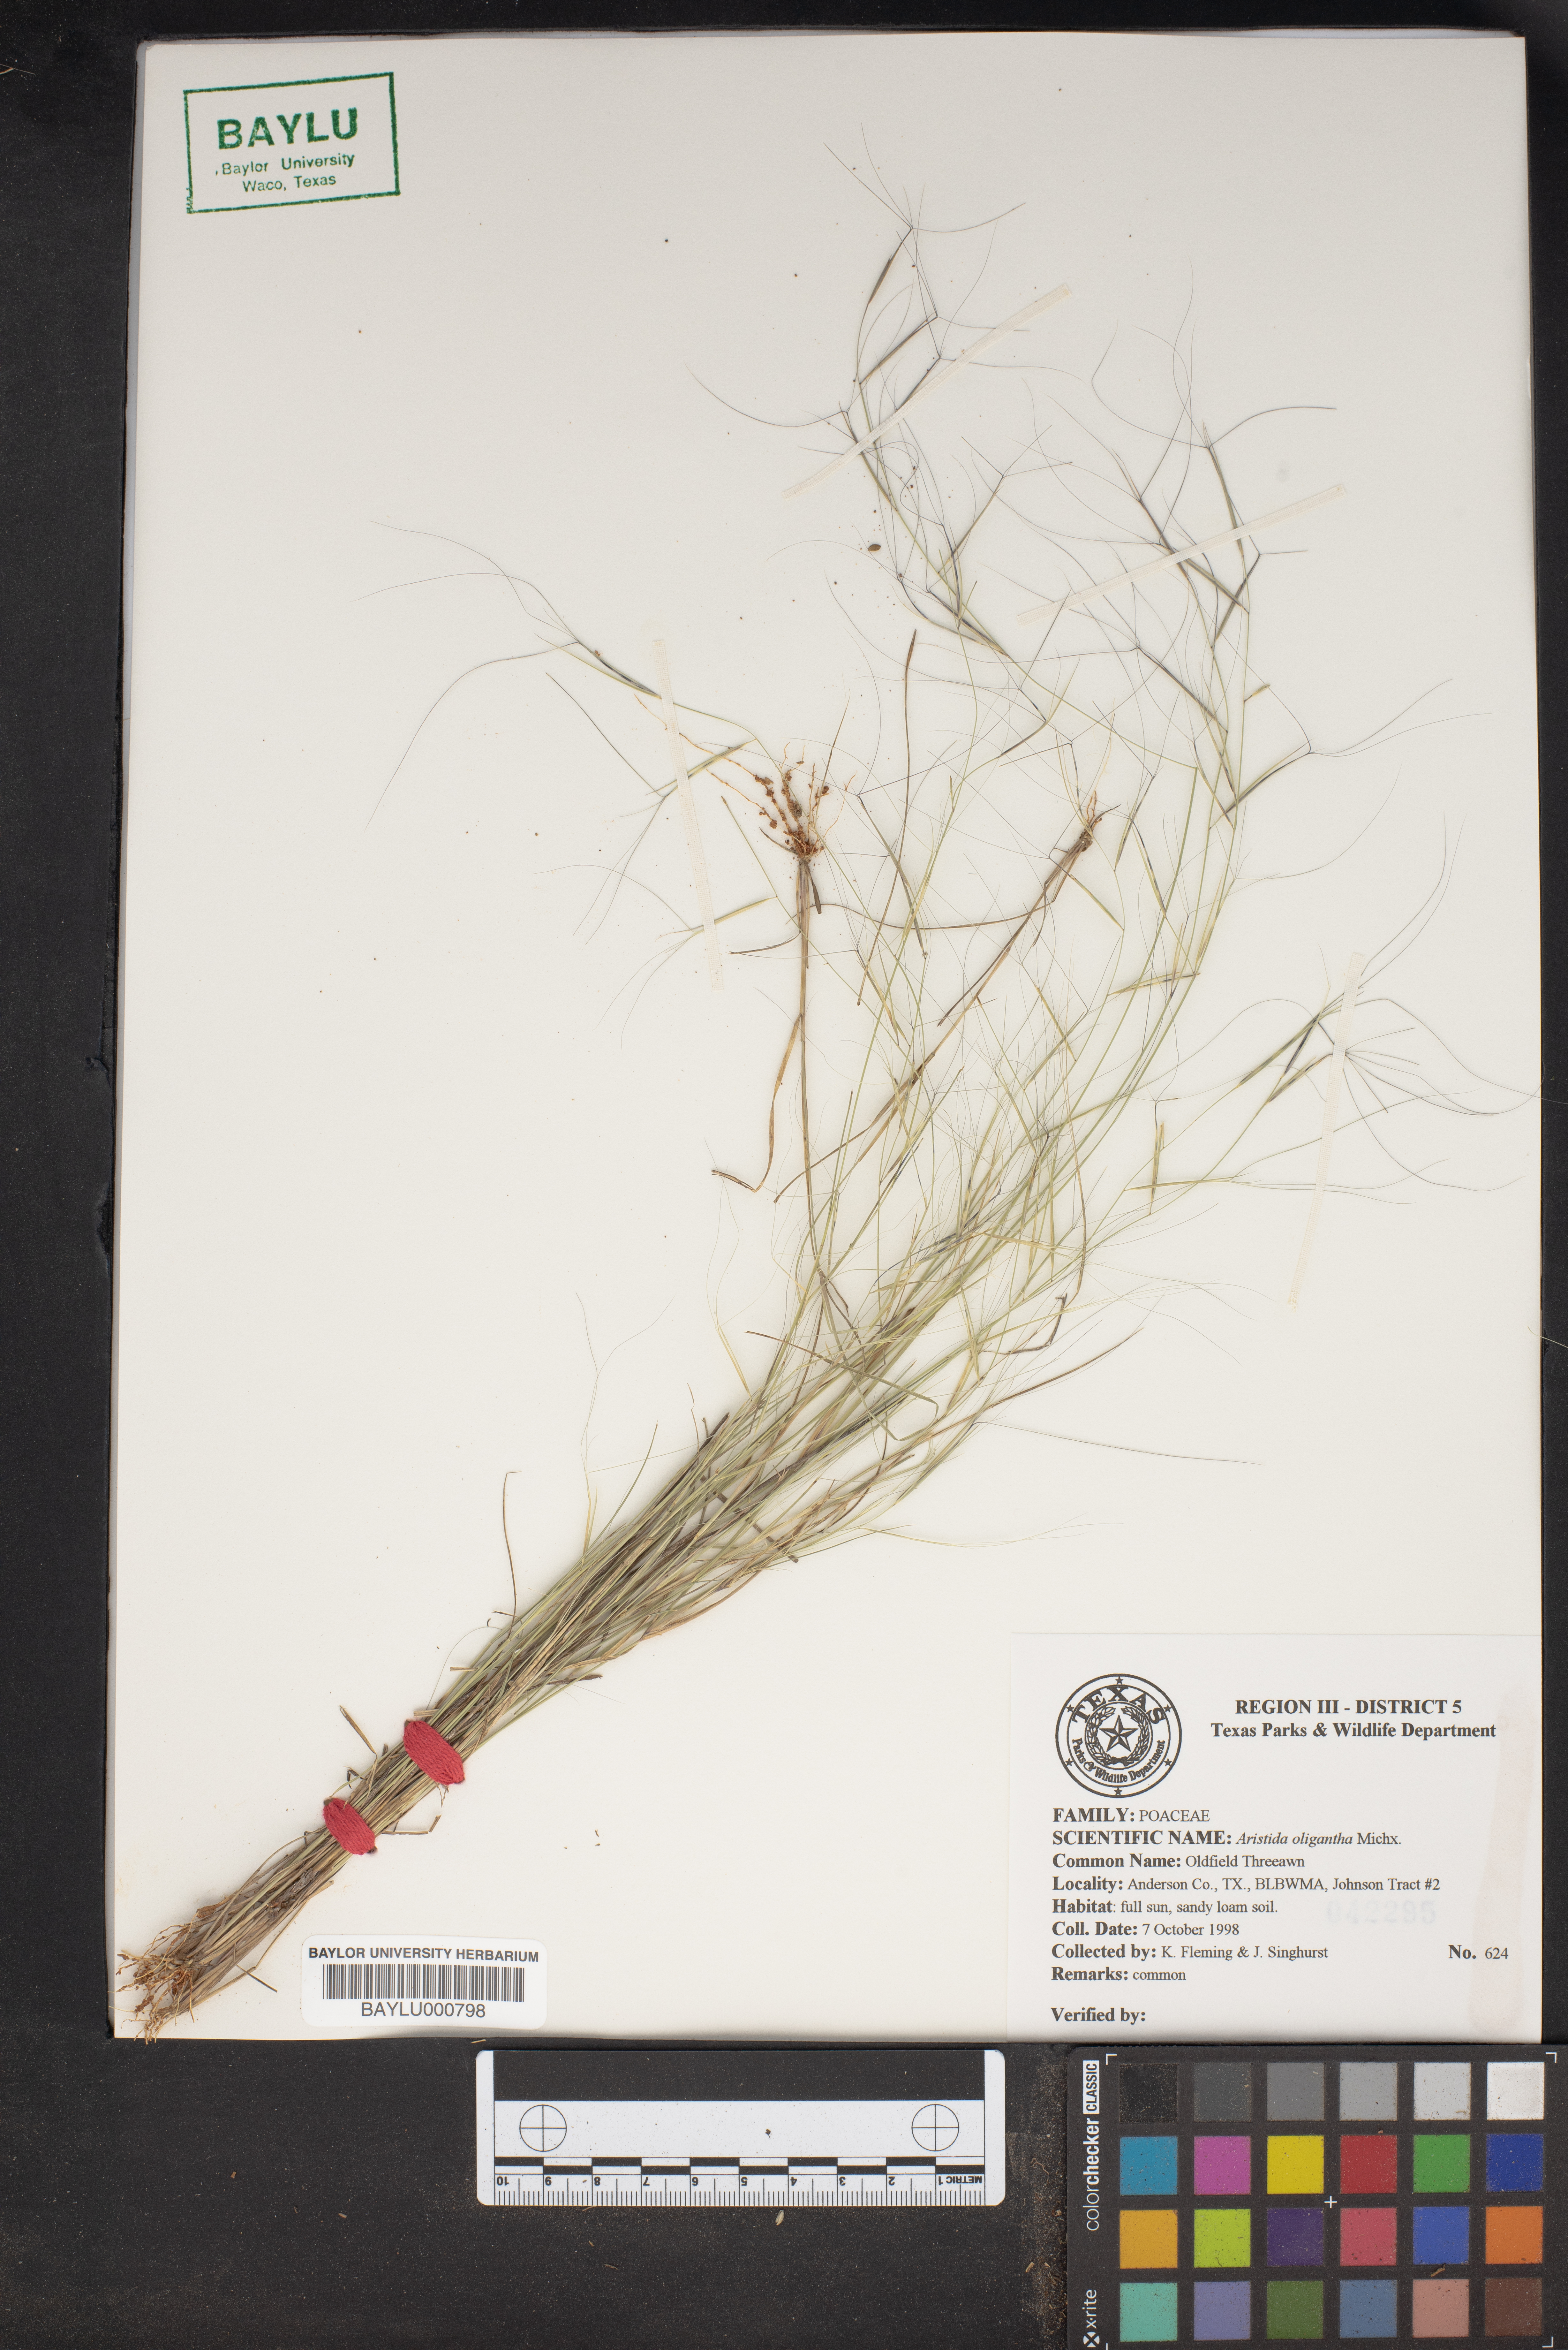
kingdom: Plantae
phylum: Tracheophyta
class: Liliopsida
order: Poales
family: Poaceae
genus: Aristida
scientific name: Aristida oligantha
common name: Few-flowered aristida
